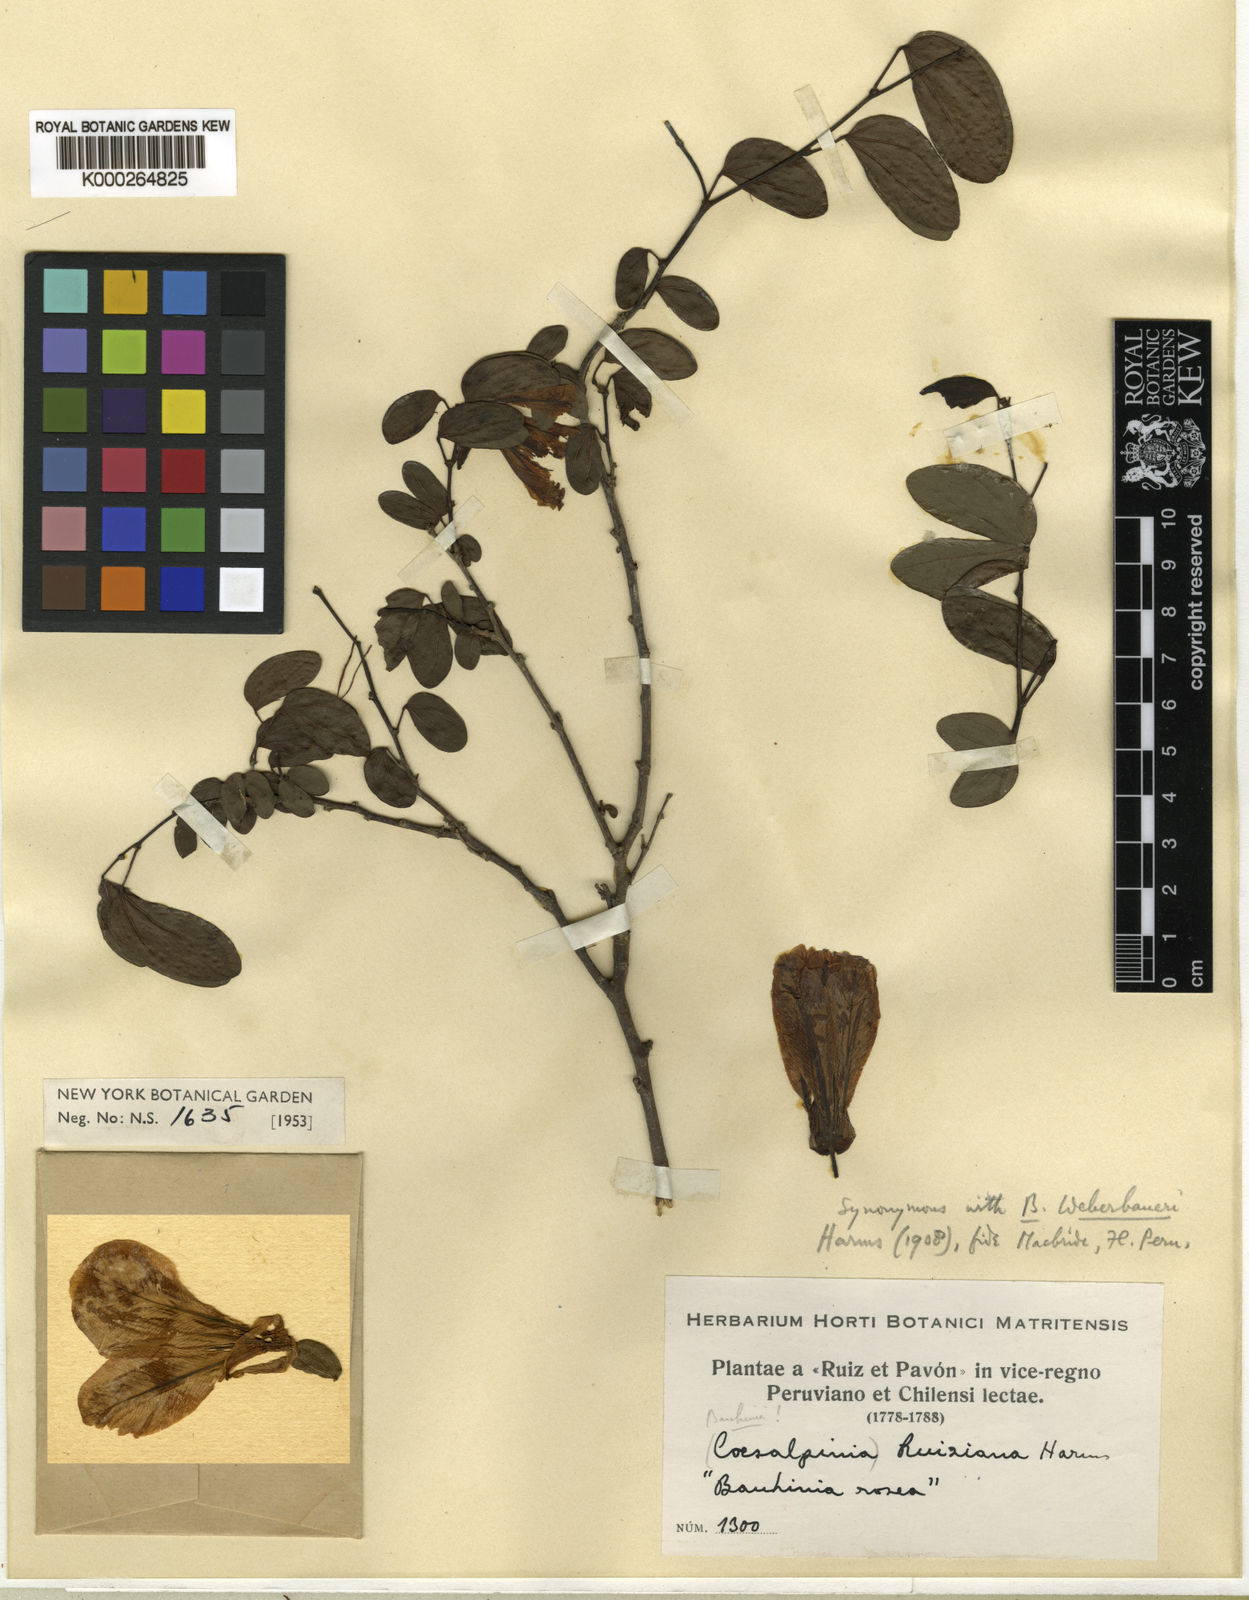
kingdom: Plantae
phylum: Tracheophyta
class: Magnoliopsida
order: Fabales
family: Fabaceae
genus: Bauhinia
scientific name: Bauhinia weberbaueri
